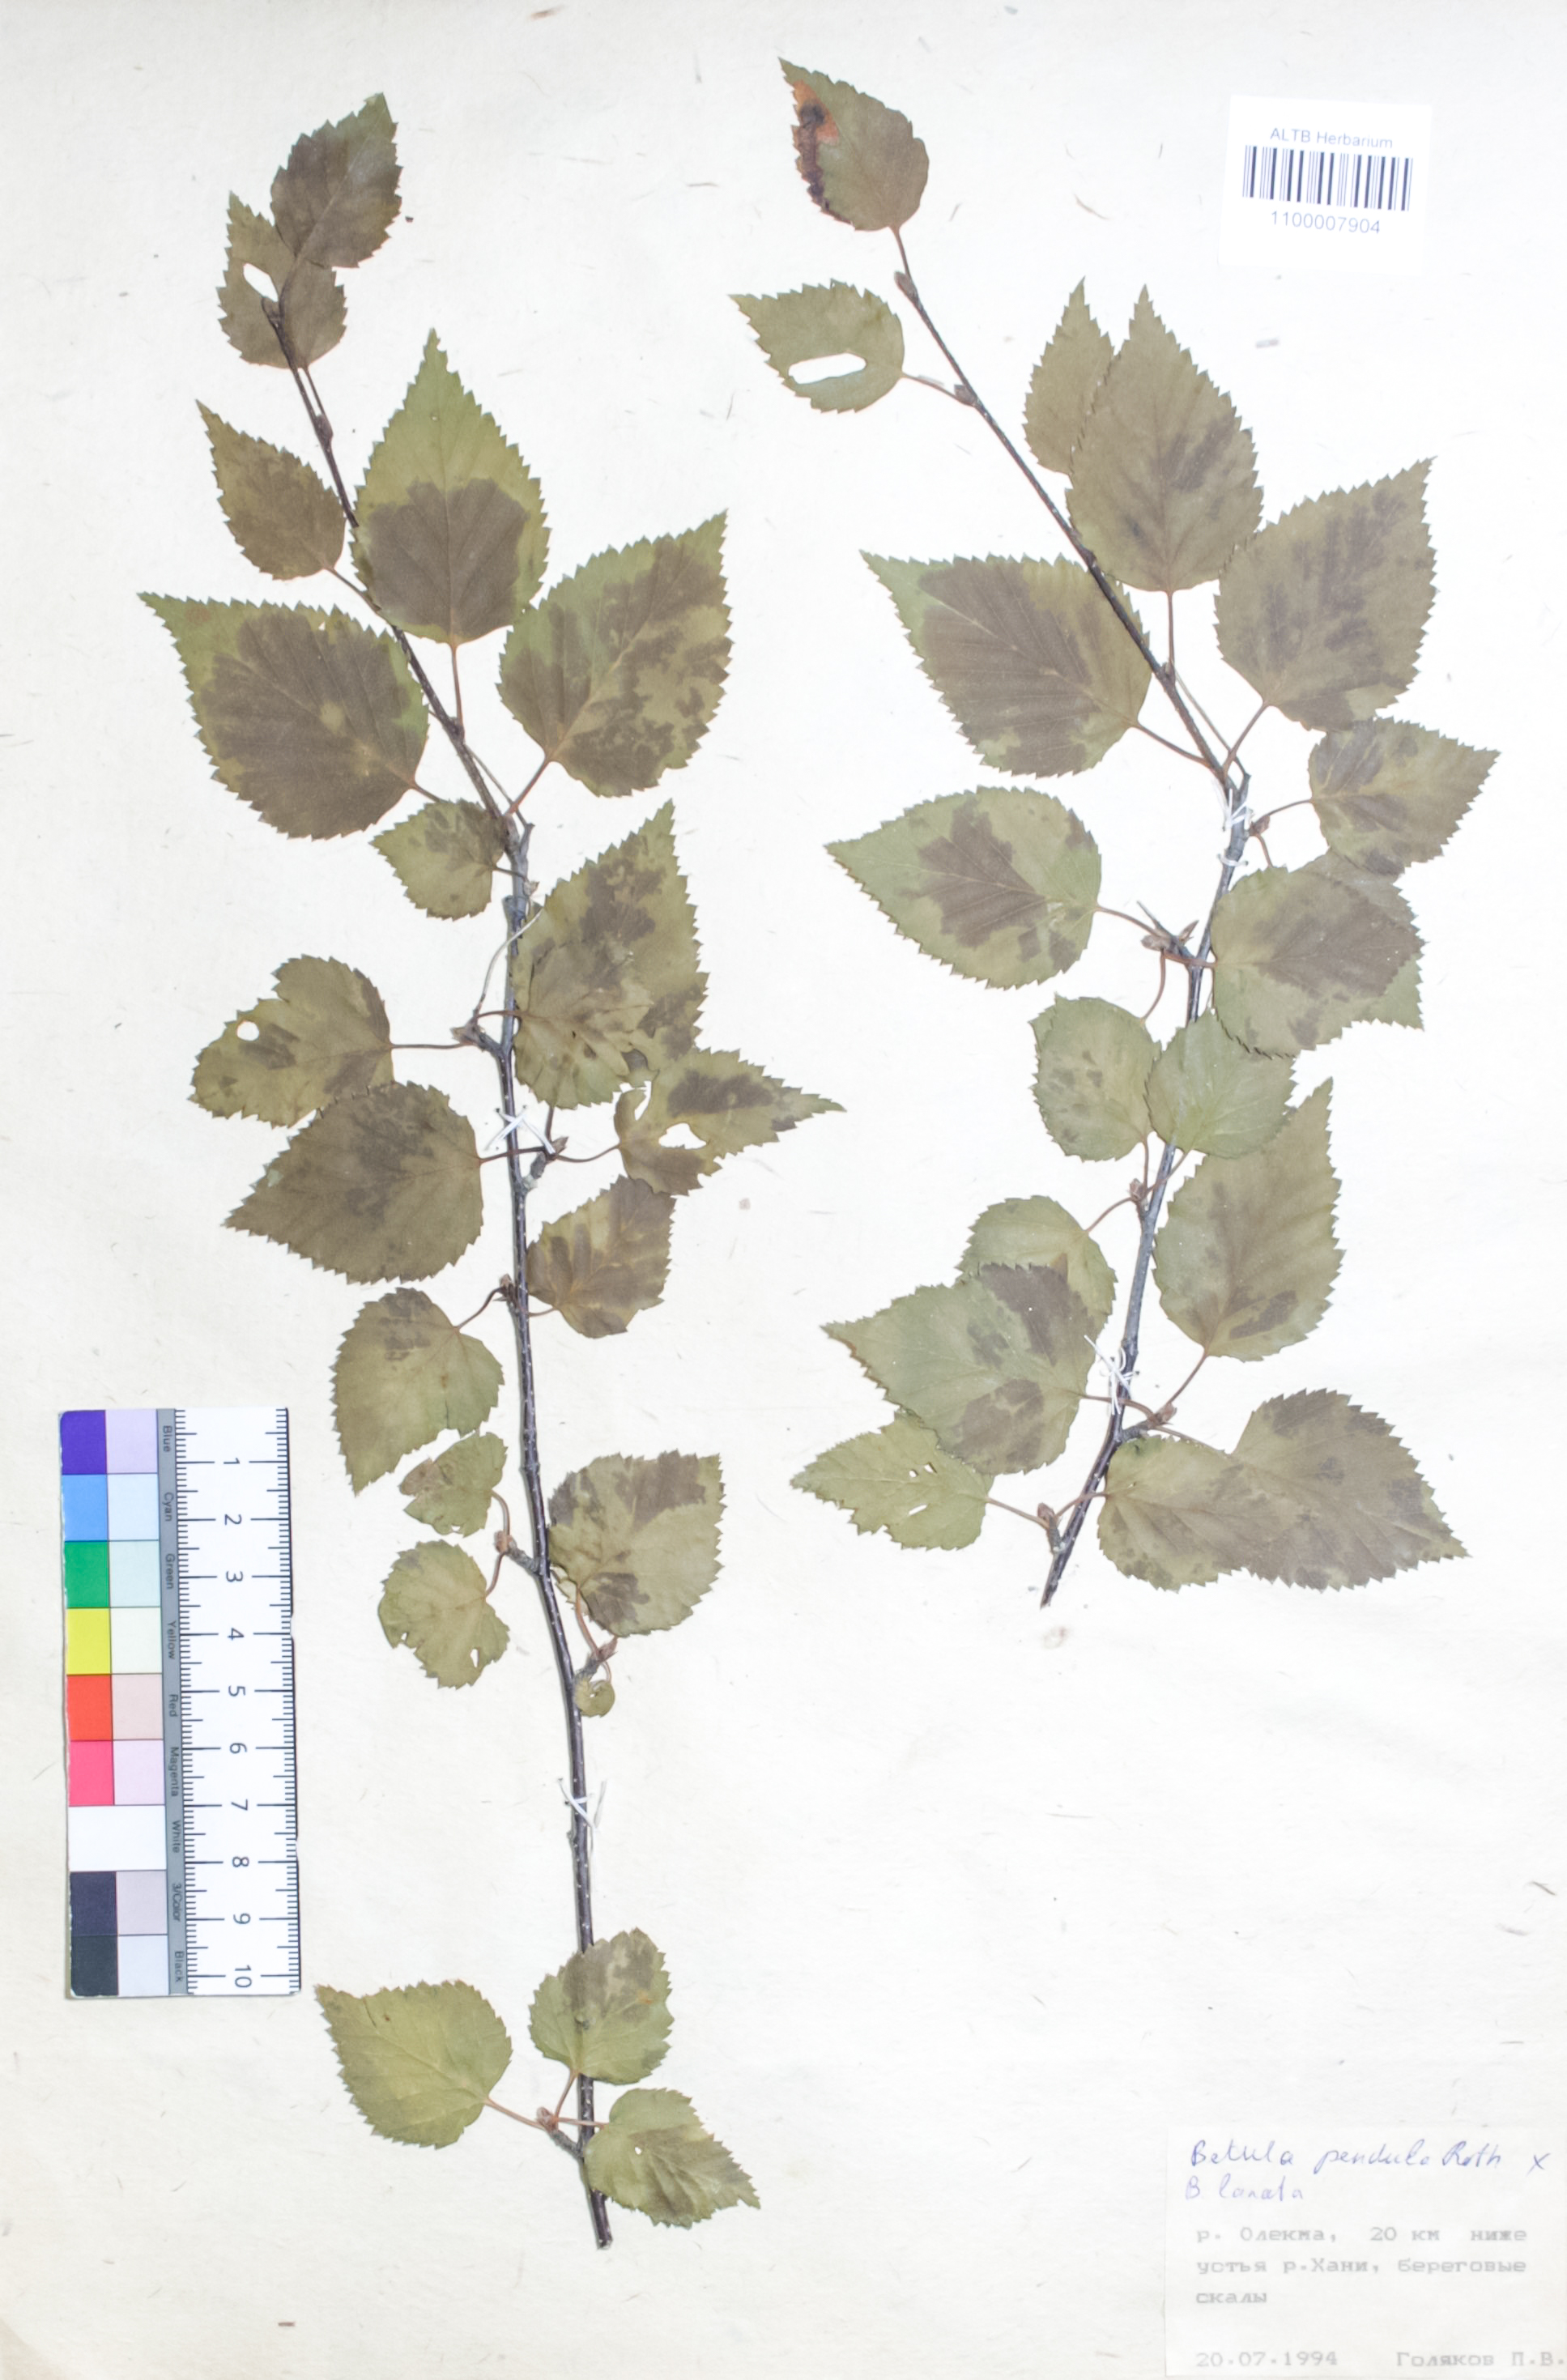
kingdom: Plantae
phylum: Tracheophyta
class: Magnoliopsida
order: Fagales
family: Betulaceae
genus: Betula
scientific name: Betula pendula
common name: Silver birch
